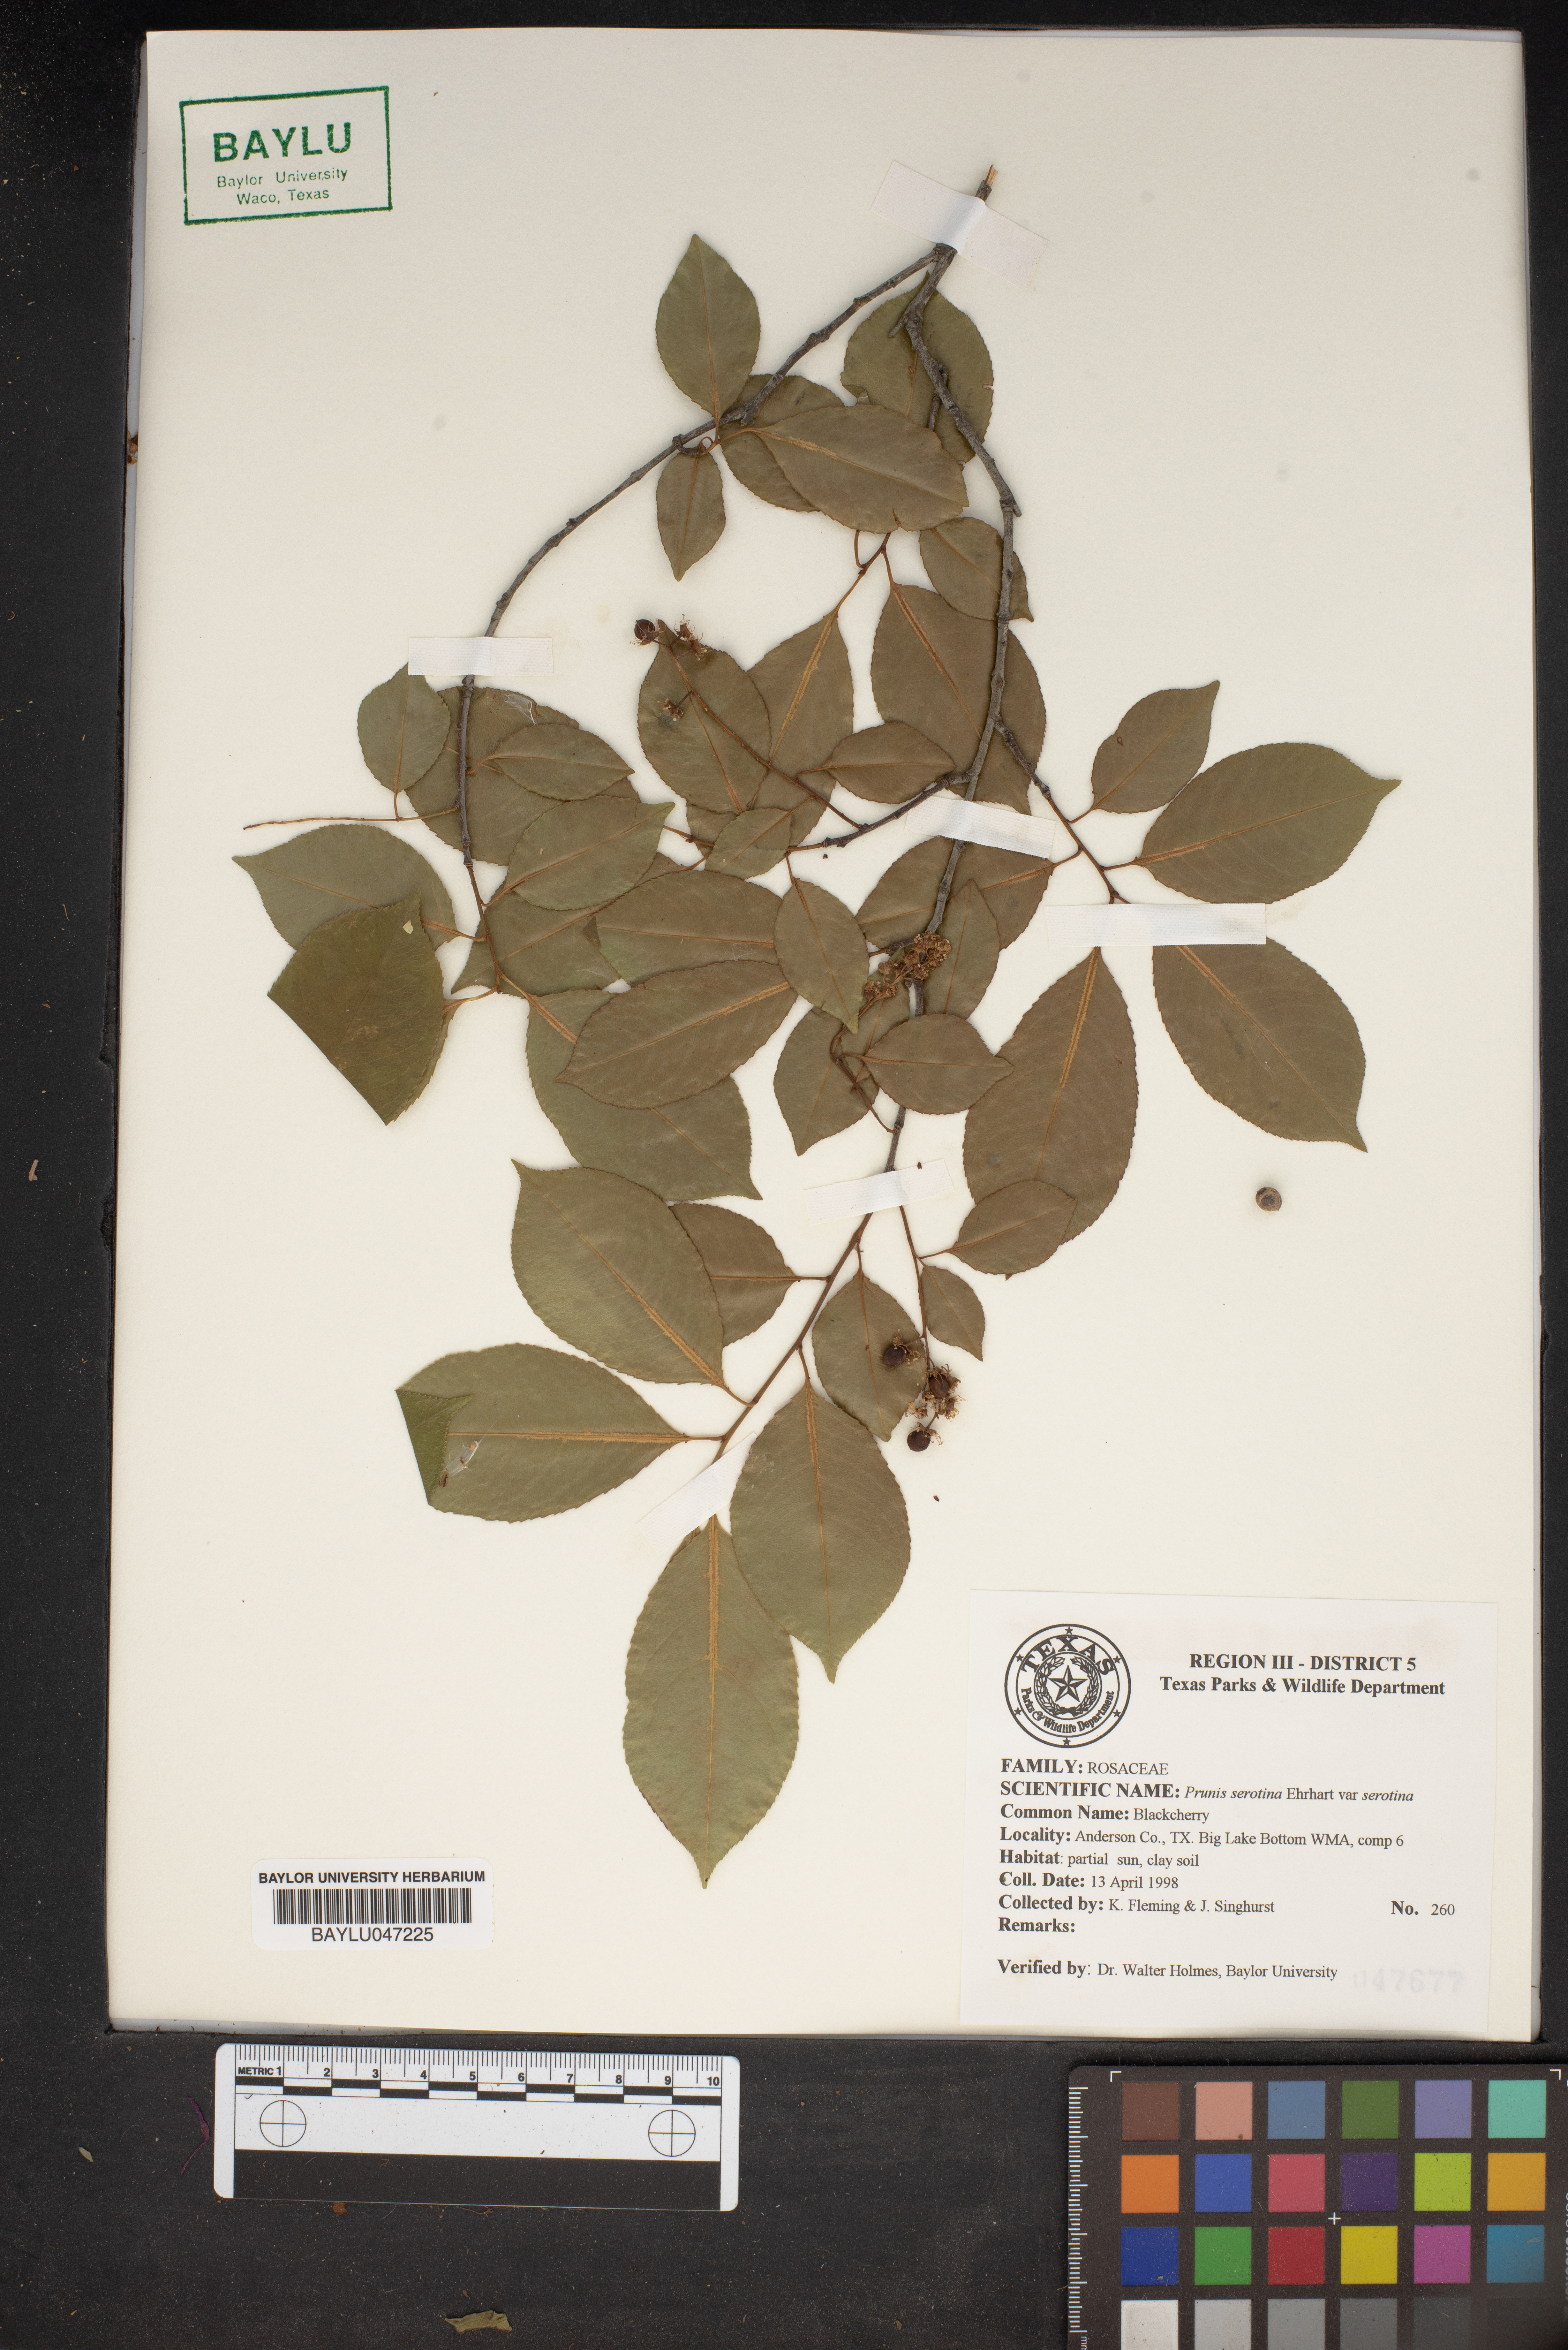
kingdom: Plantae
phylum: Tracheophyta
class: Magnoliopsida
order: Rosales
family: Rosaceae
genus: Prunus
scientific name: Prunus serotina
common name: Black cherry
